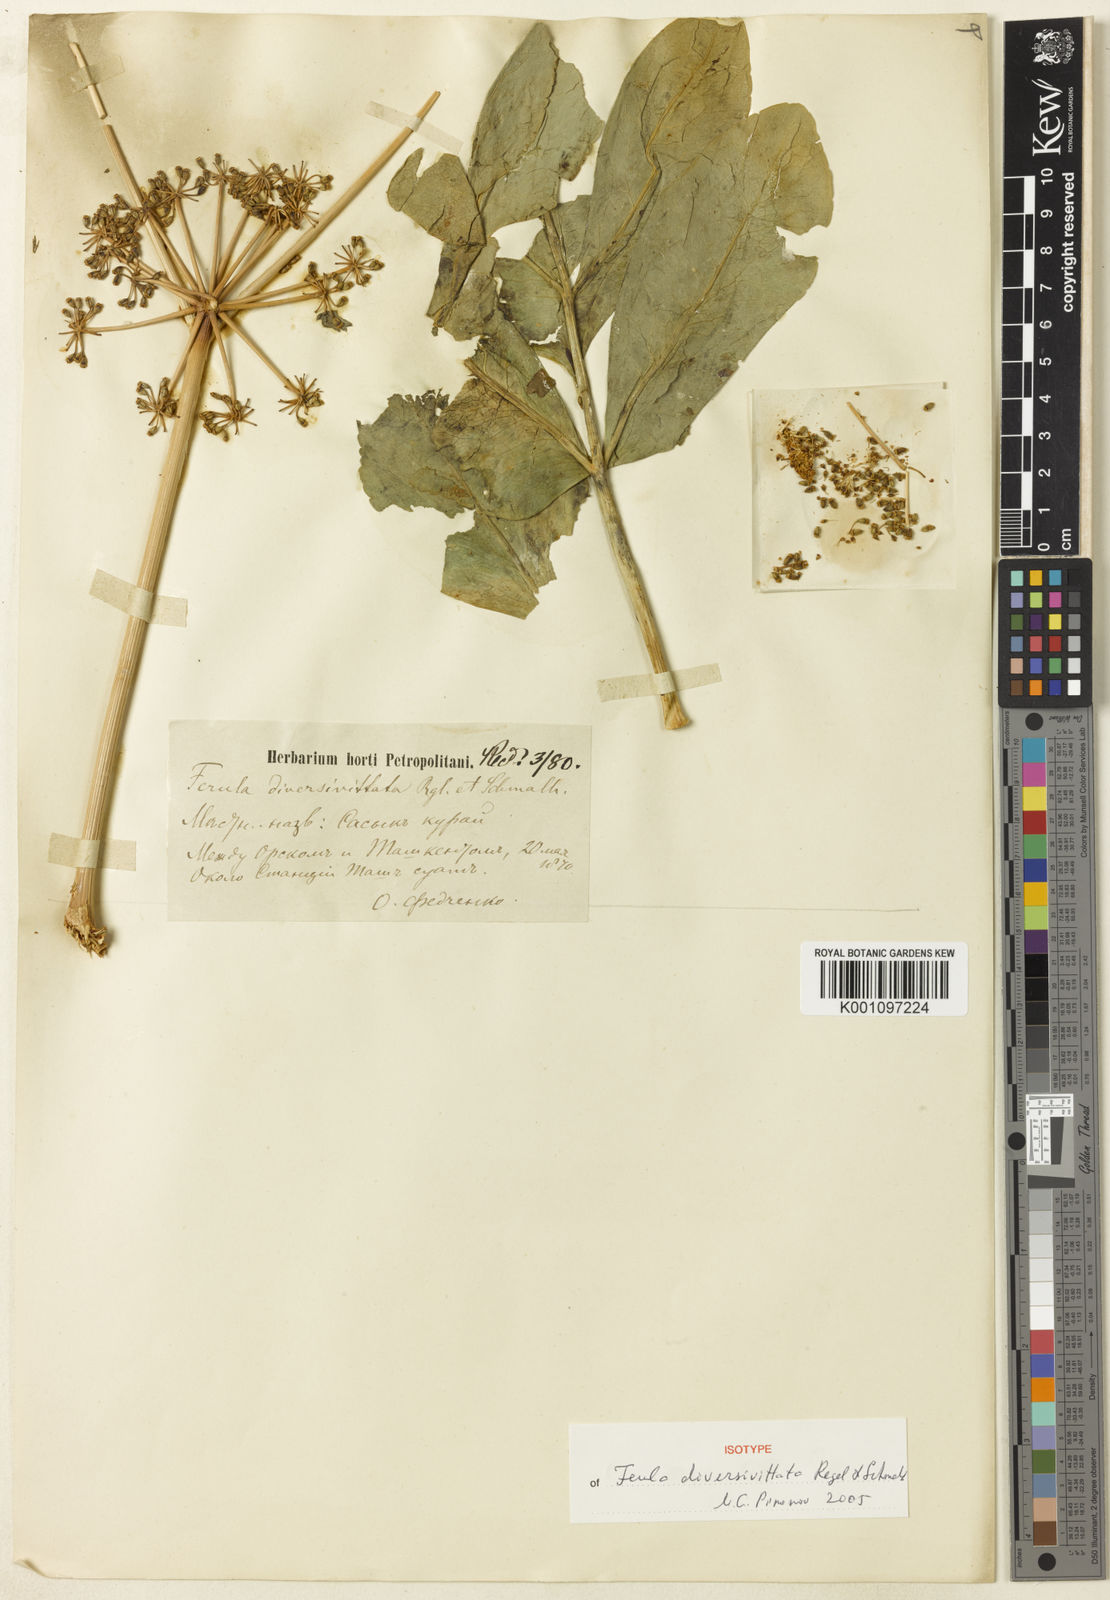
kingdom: Plantae
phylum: Tracheophyta
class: Magnoliopsida
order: Apiales
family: Apiaceae
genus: Ferula
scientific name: Ferula diversivittata
